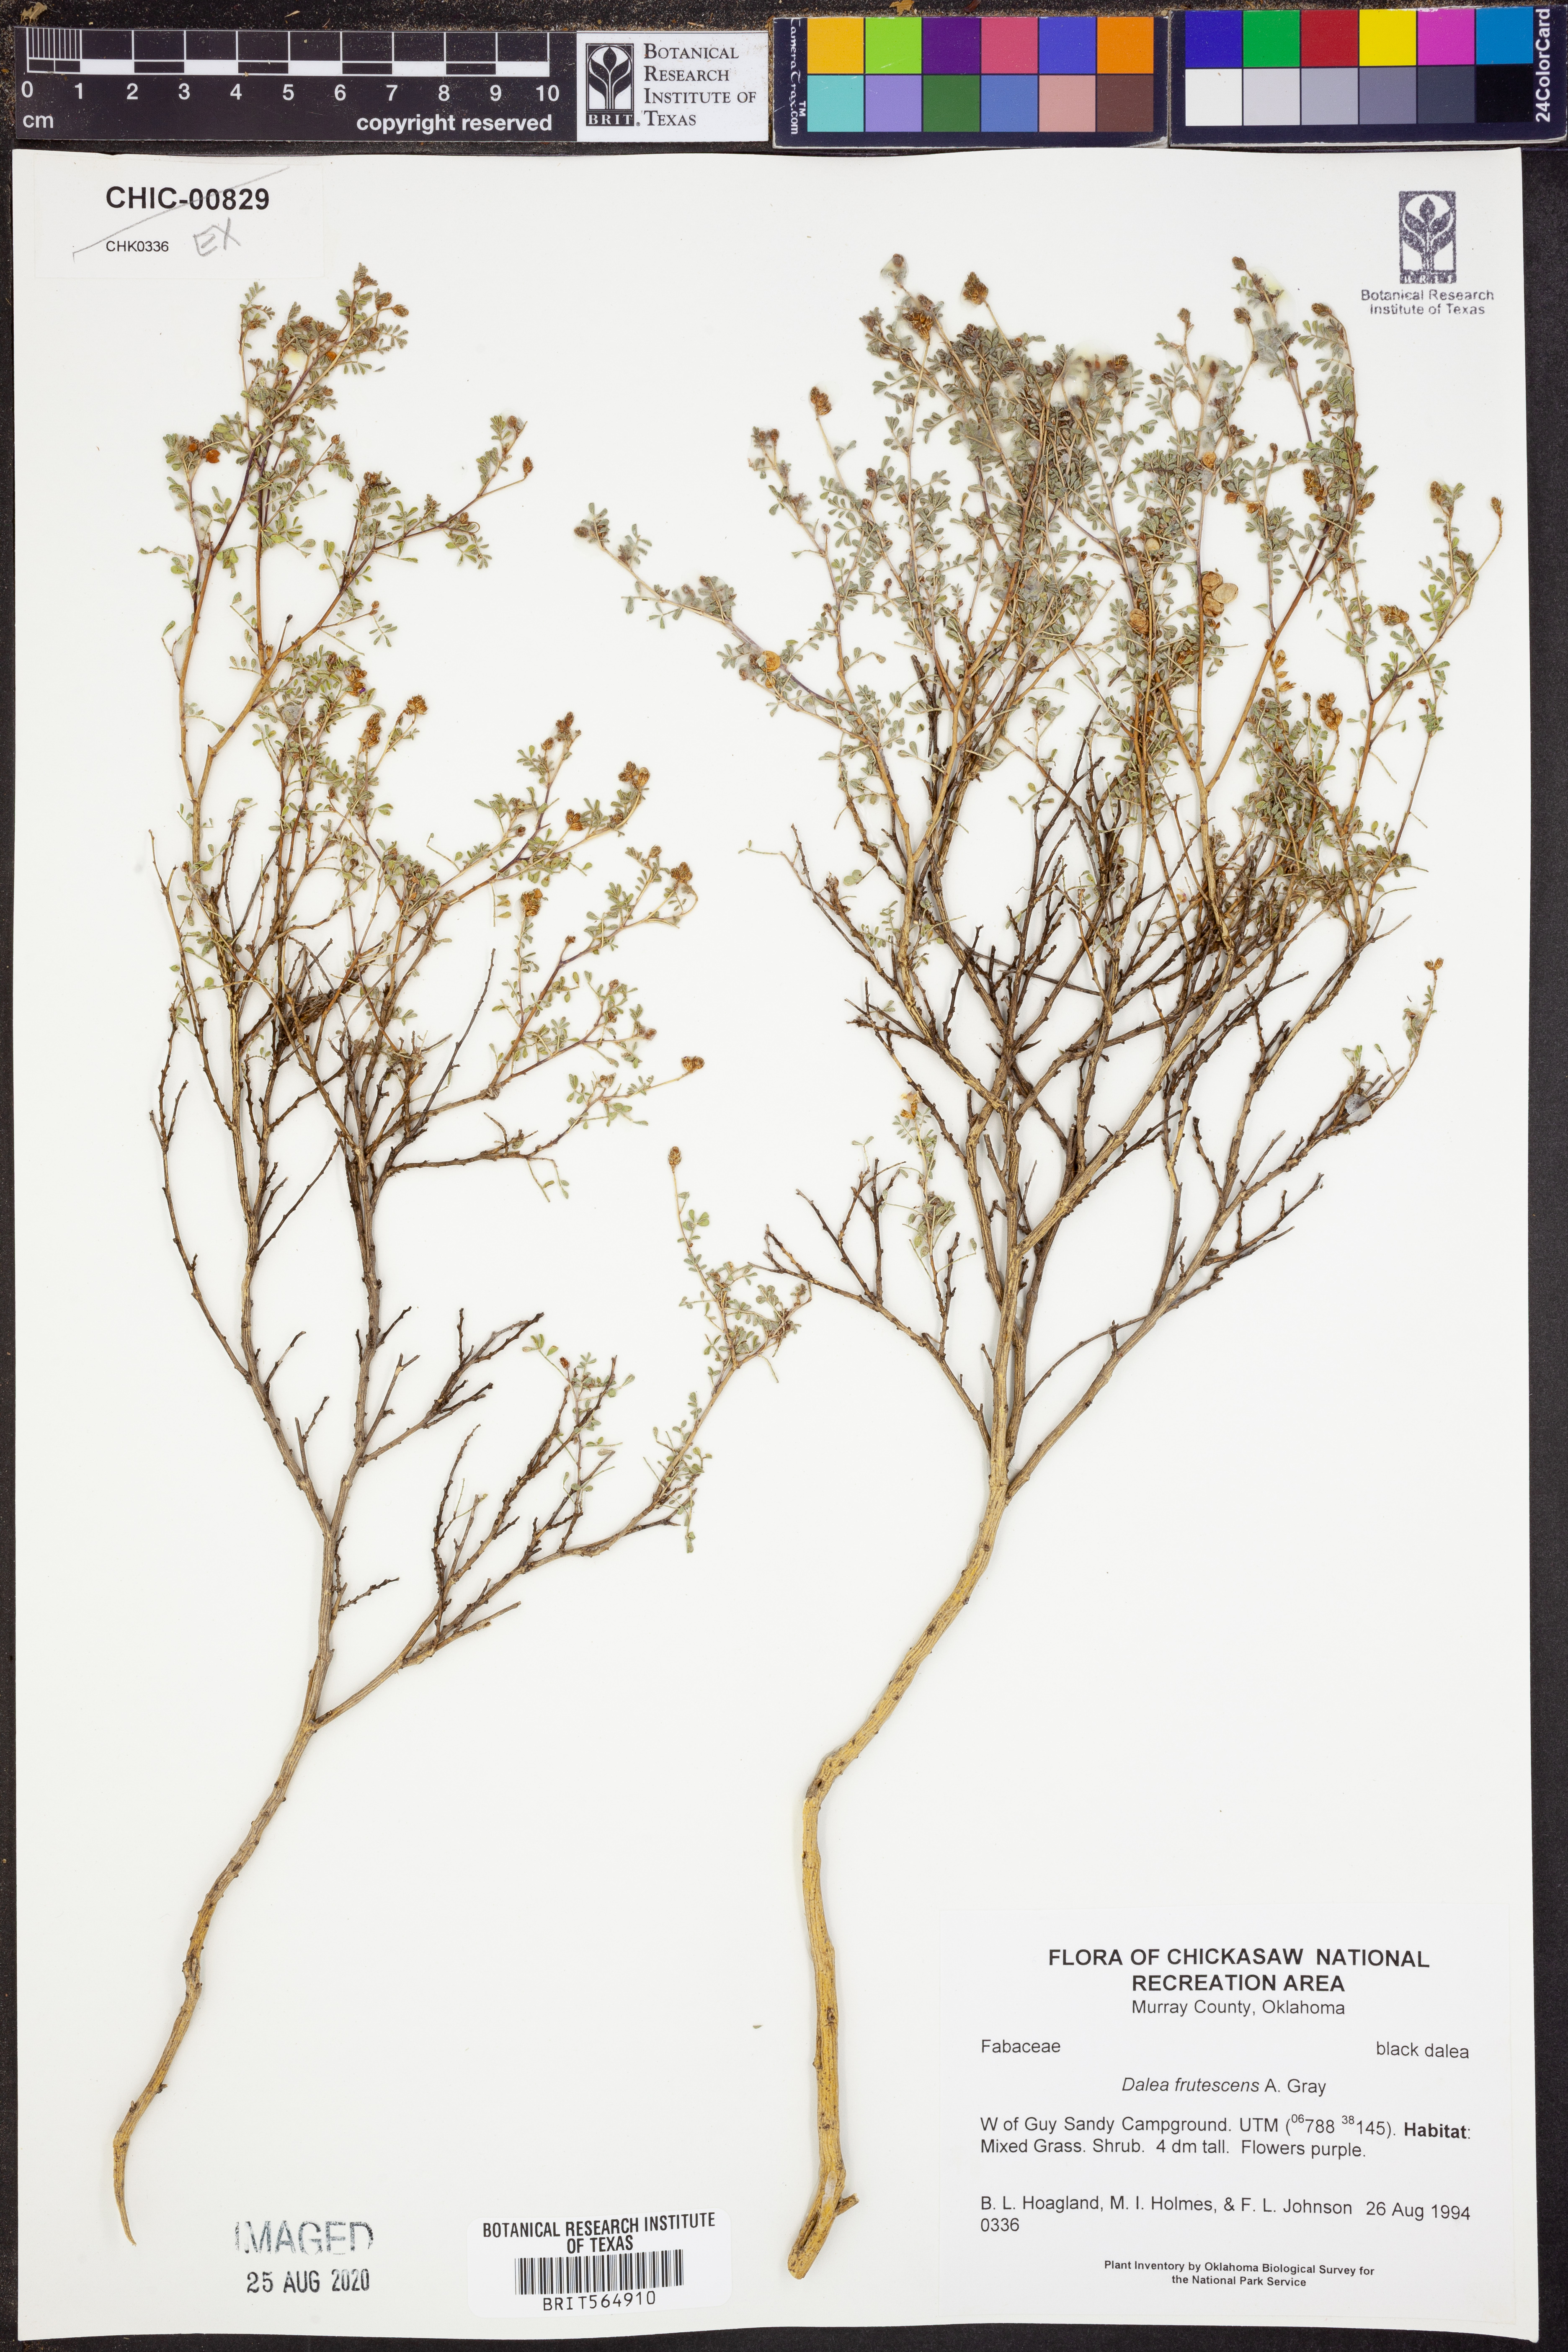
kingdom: Plantae
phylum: Tracheophyta
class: Magnoliopsida
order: Fabales
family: Fabaceae
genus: Dalea
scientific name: Dalea frutescens
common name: Black dalea
